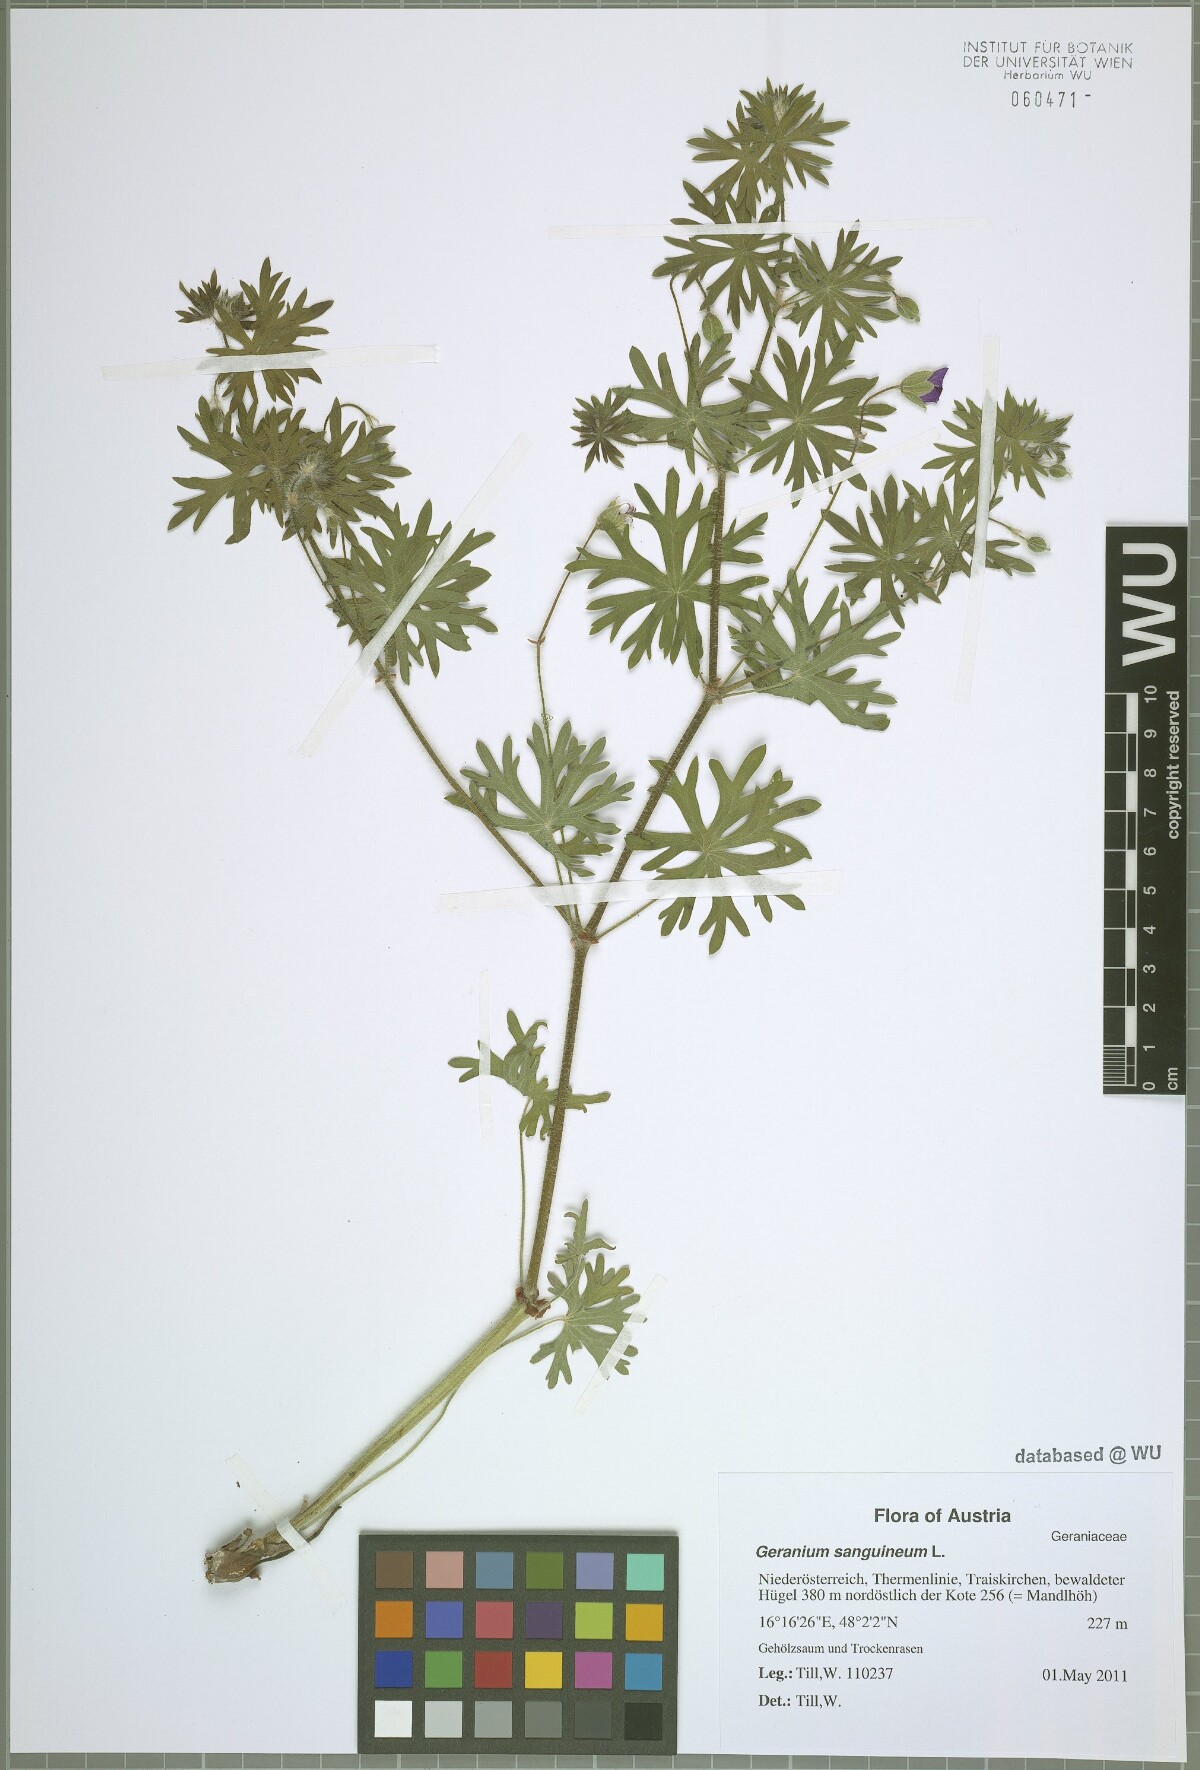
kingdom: Plantae
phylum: Tracheophyta
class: Magnoliopsida
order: Geraniales
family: Geraniaceae
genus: Geranium
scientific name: Geranium sanguineum
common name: Bloody crane's-bill
